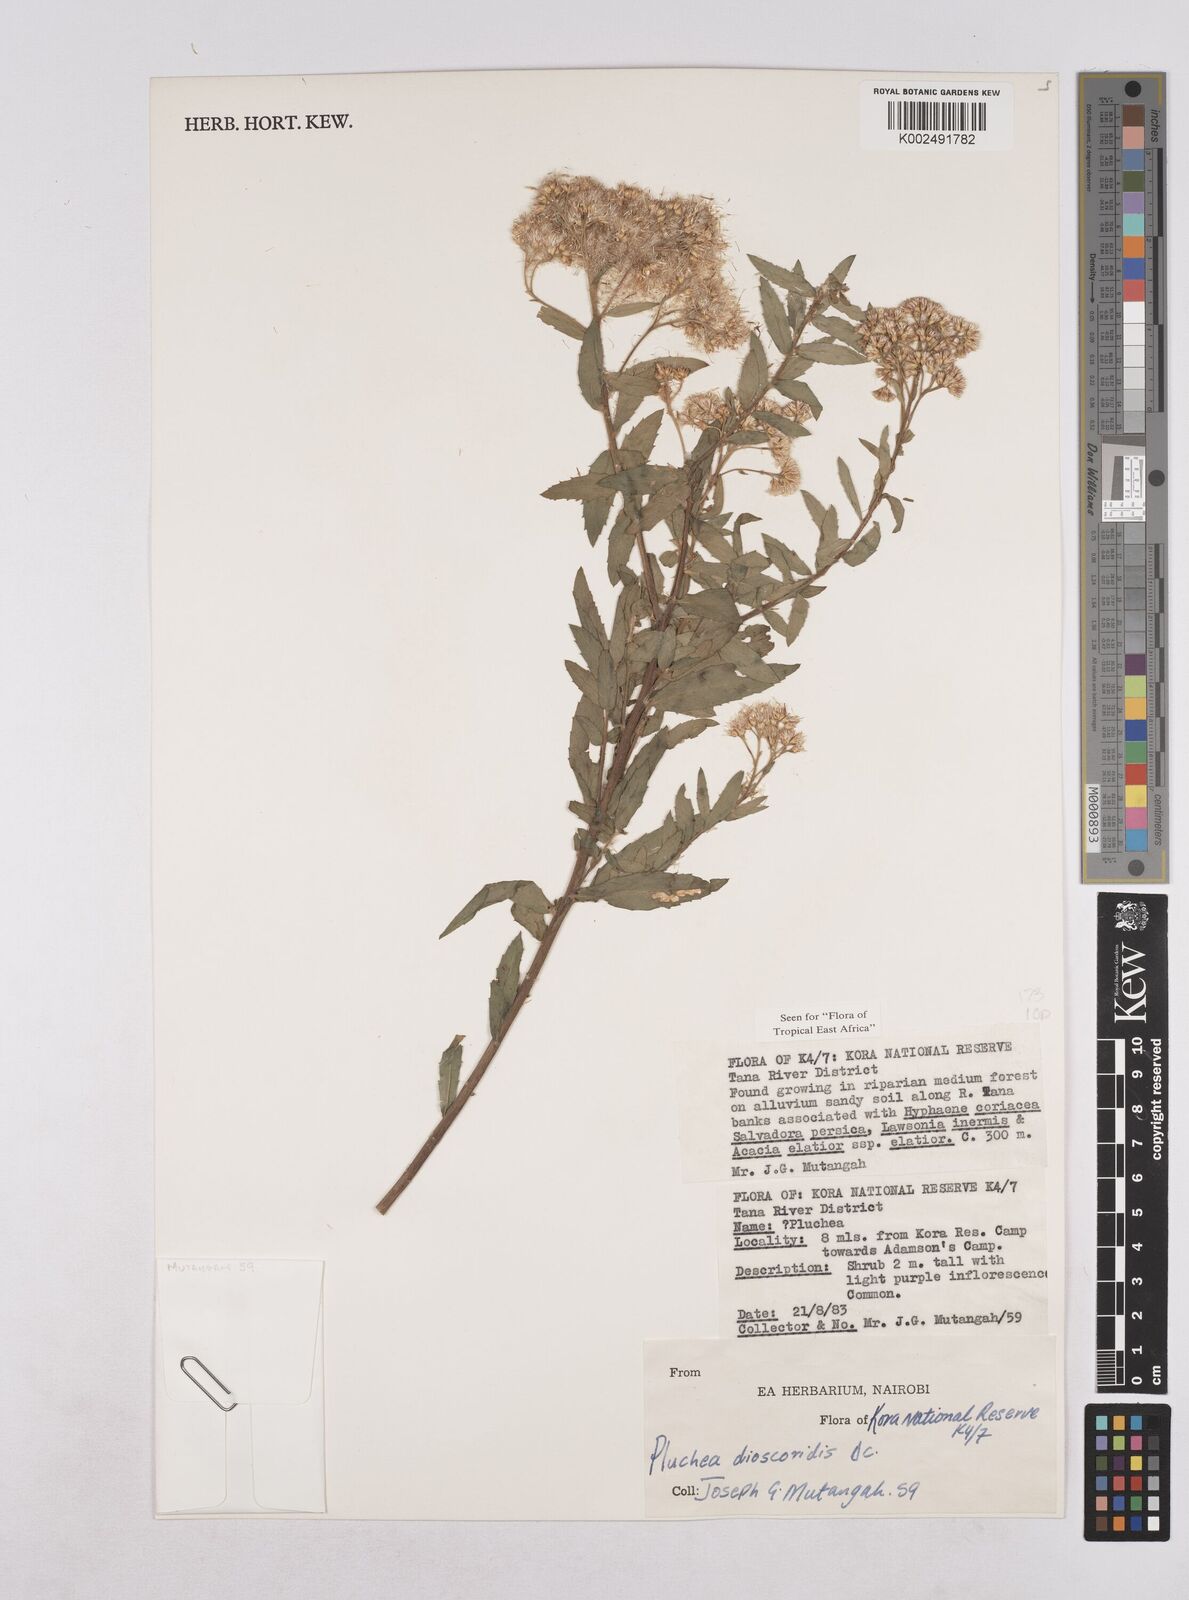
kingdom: Plantae
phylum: Tracheophyta
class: Magnoliopsida
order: Asterales
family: Asteraceae
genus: Pluchea
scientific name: Pluchea dioscoridis
